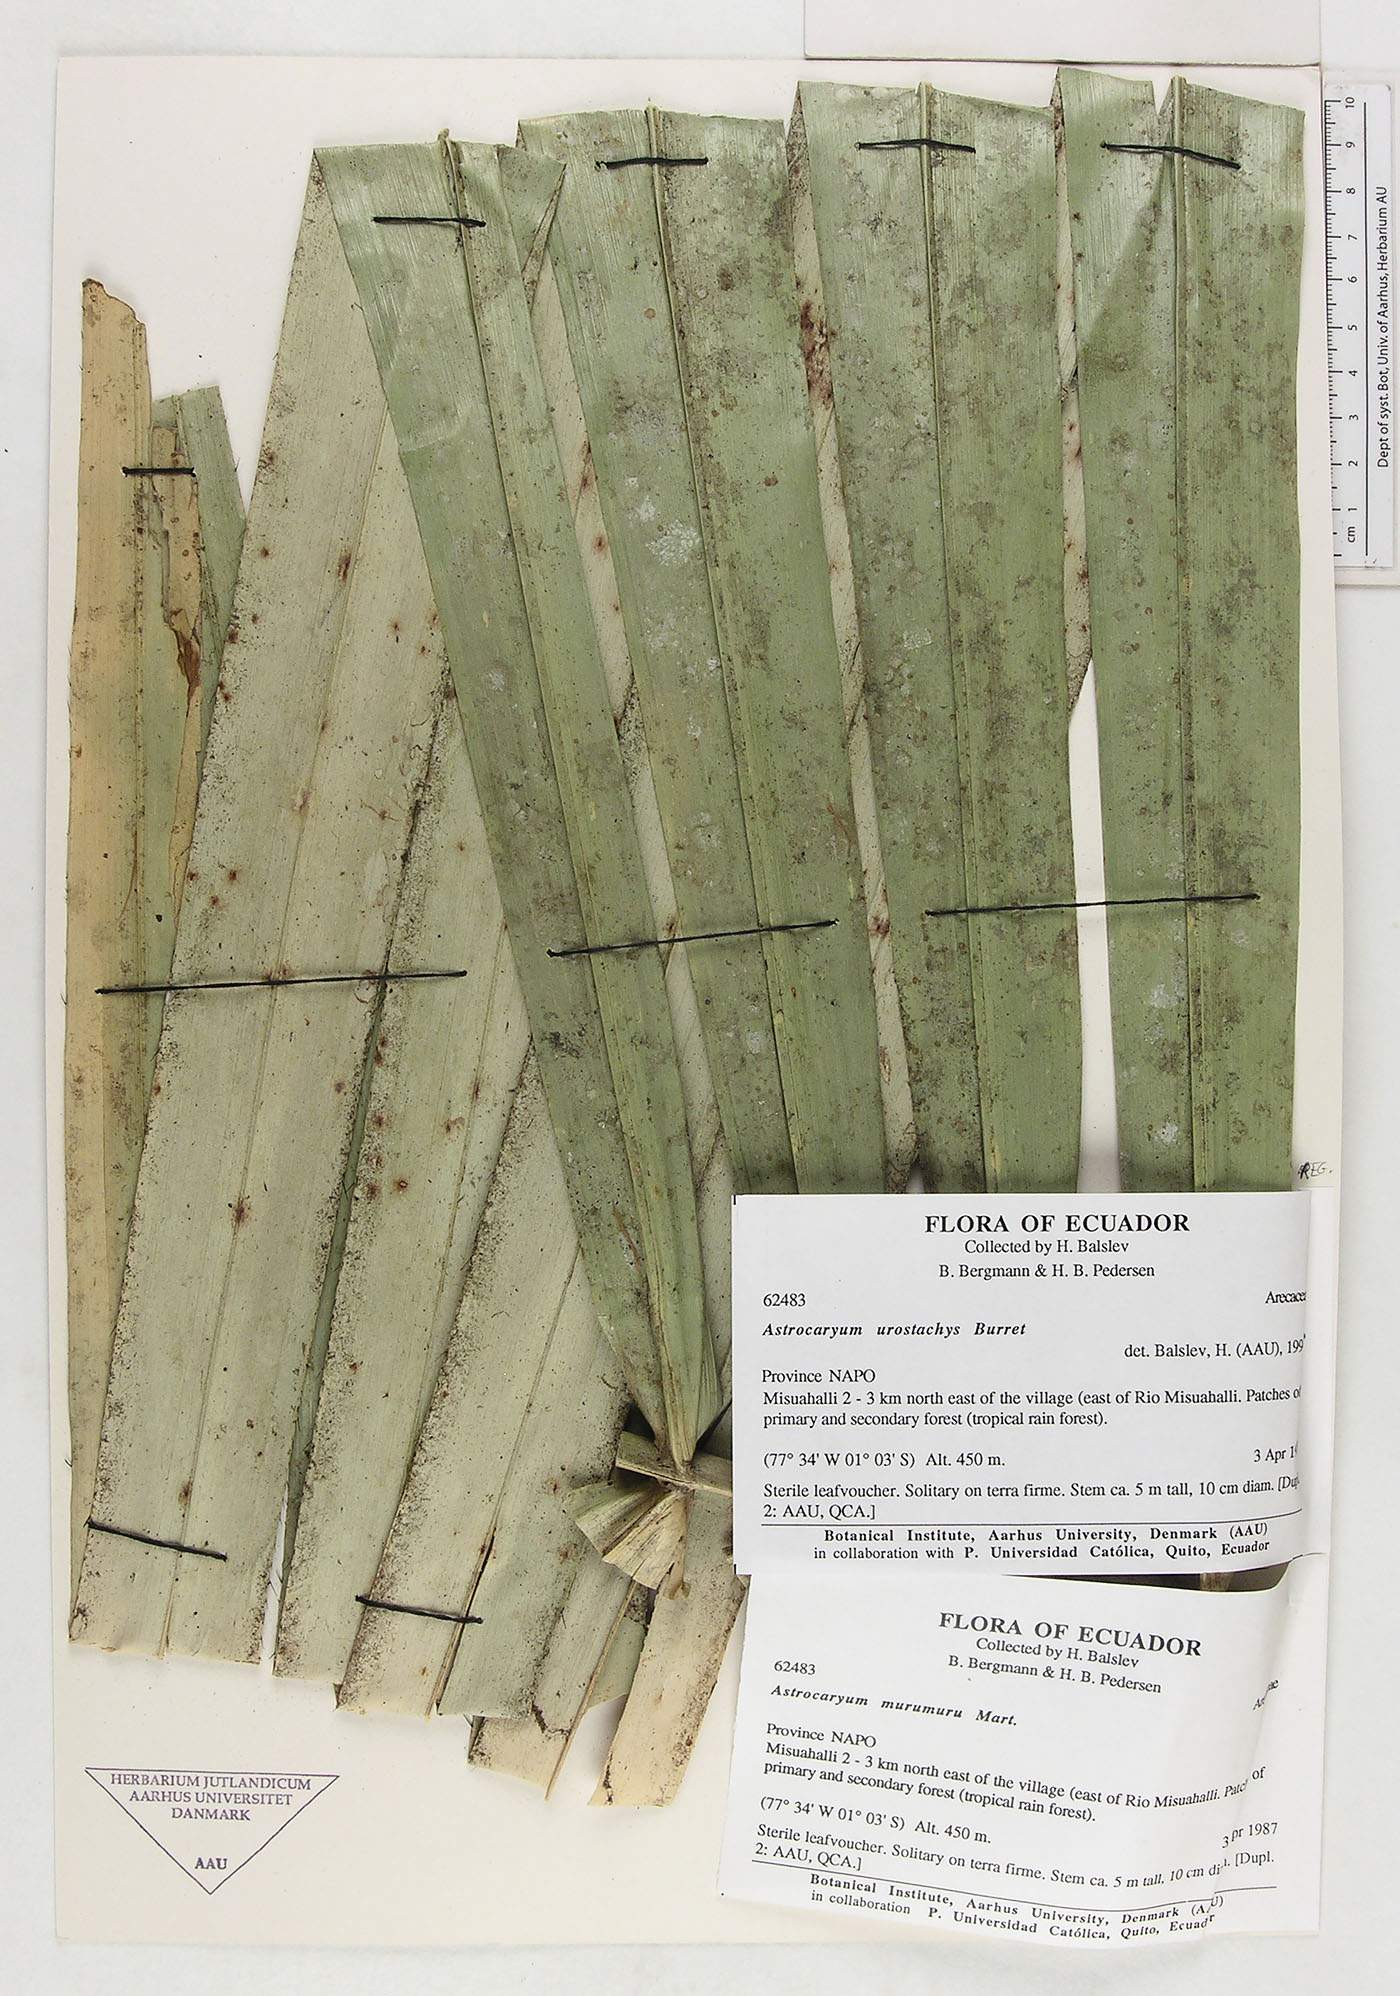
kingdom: Plantae
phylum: Tracheophyta
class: Liliopsida
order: Arecales
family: Arecaceae
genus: Astrocaryum
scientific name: Astrocaryum urostachys
